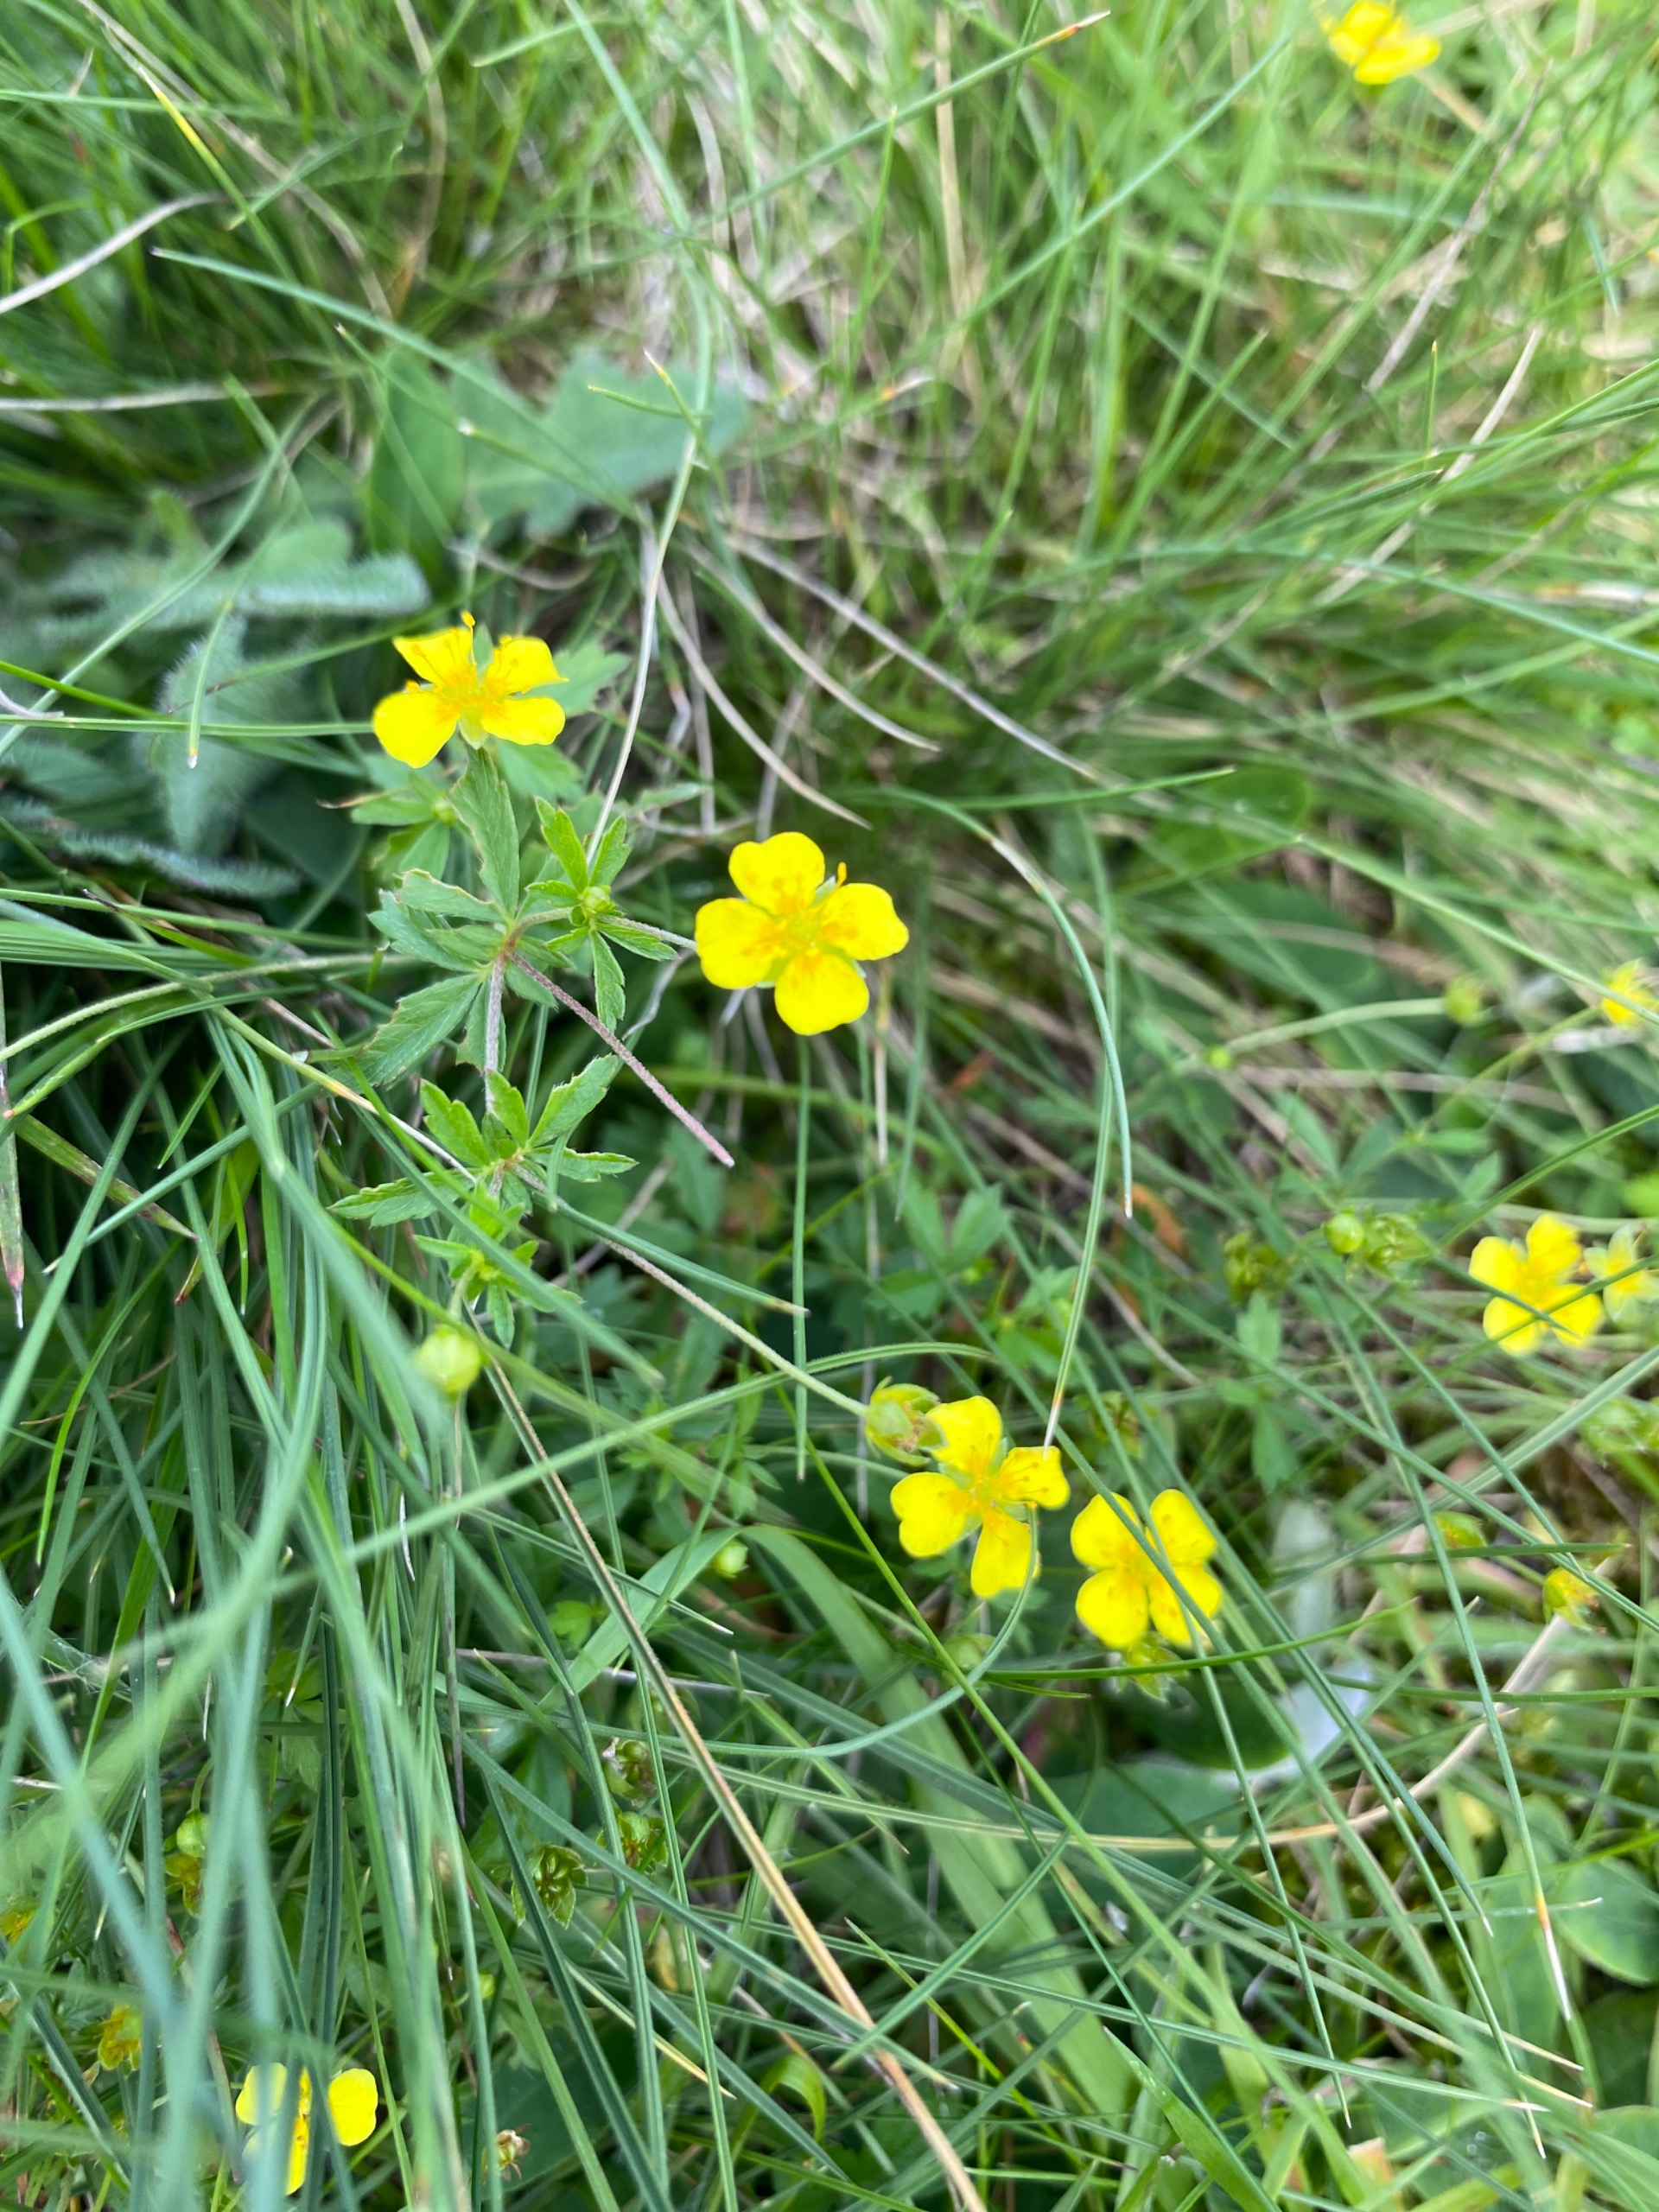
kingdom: Plantae
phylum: Tracheophyta
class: Magnoliopsida
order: Rosales
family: Rosaceae
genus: Potentilla
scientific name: Potentilla erecta
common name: Tormentil
